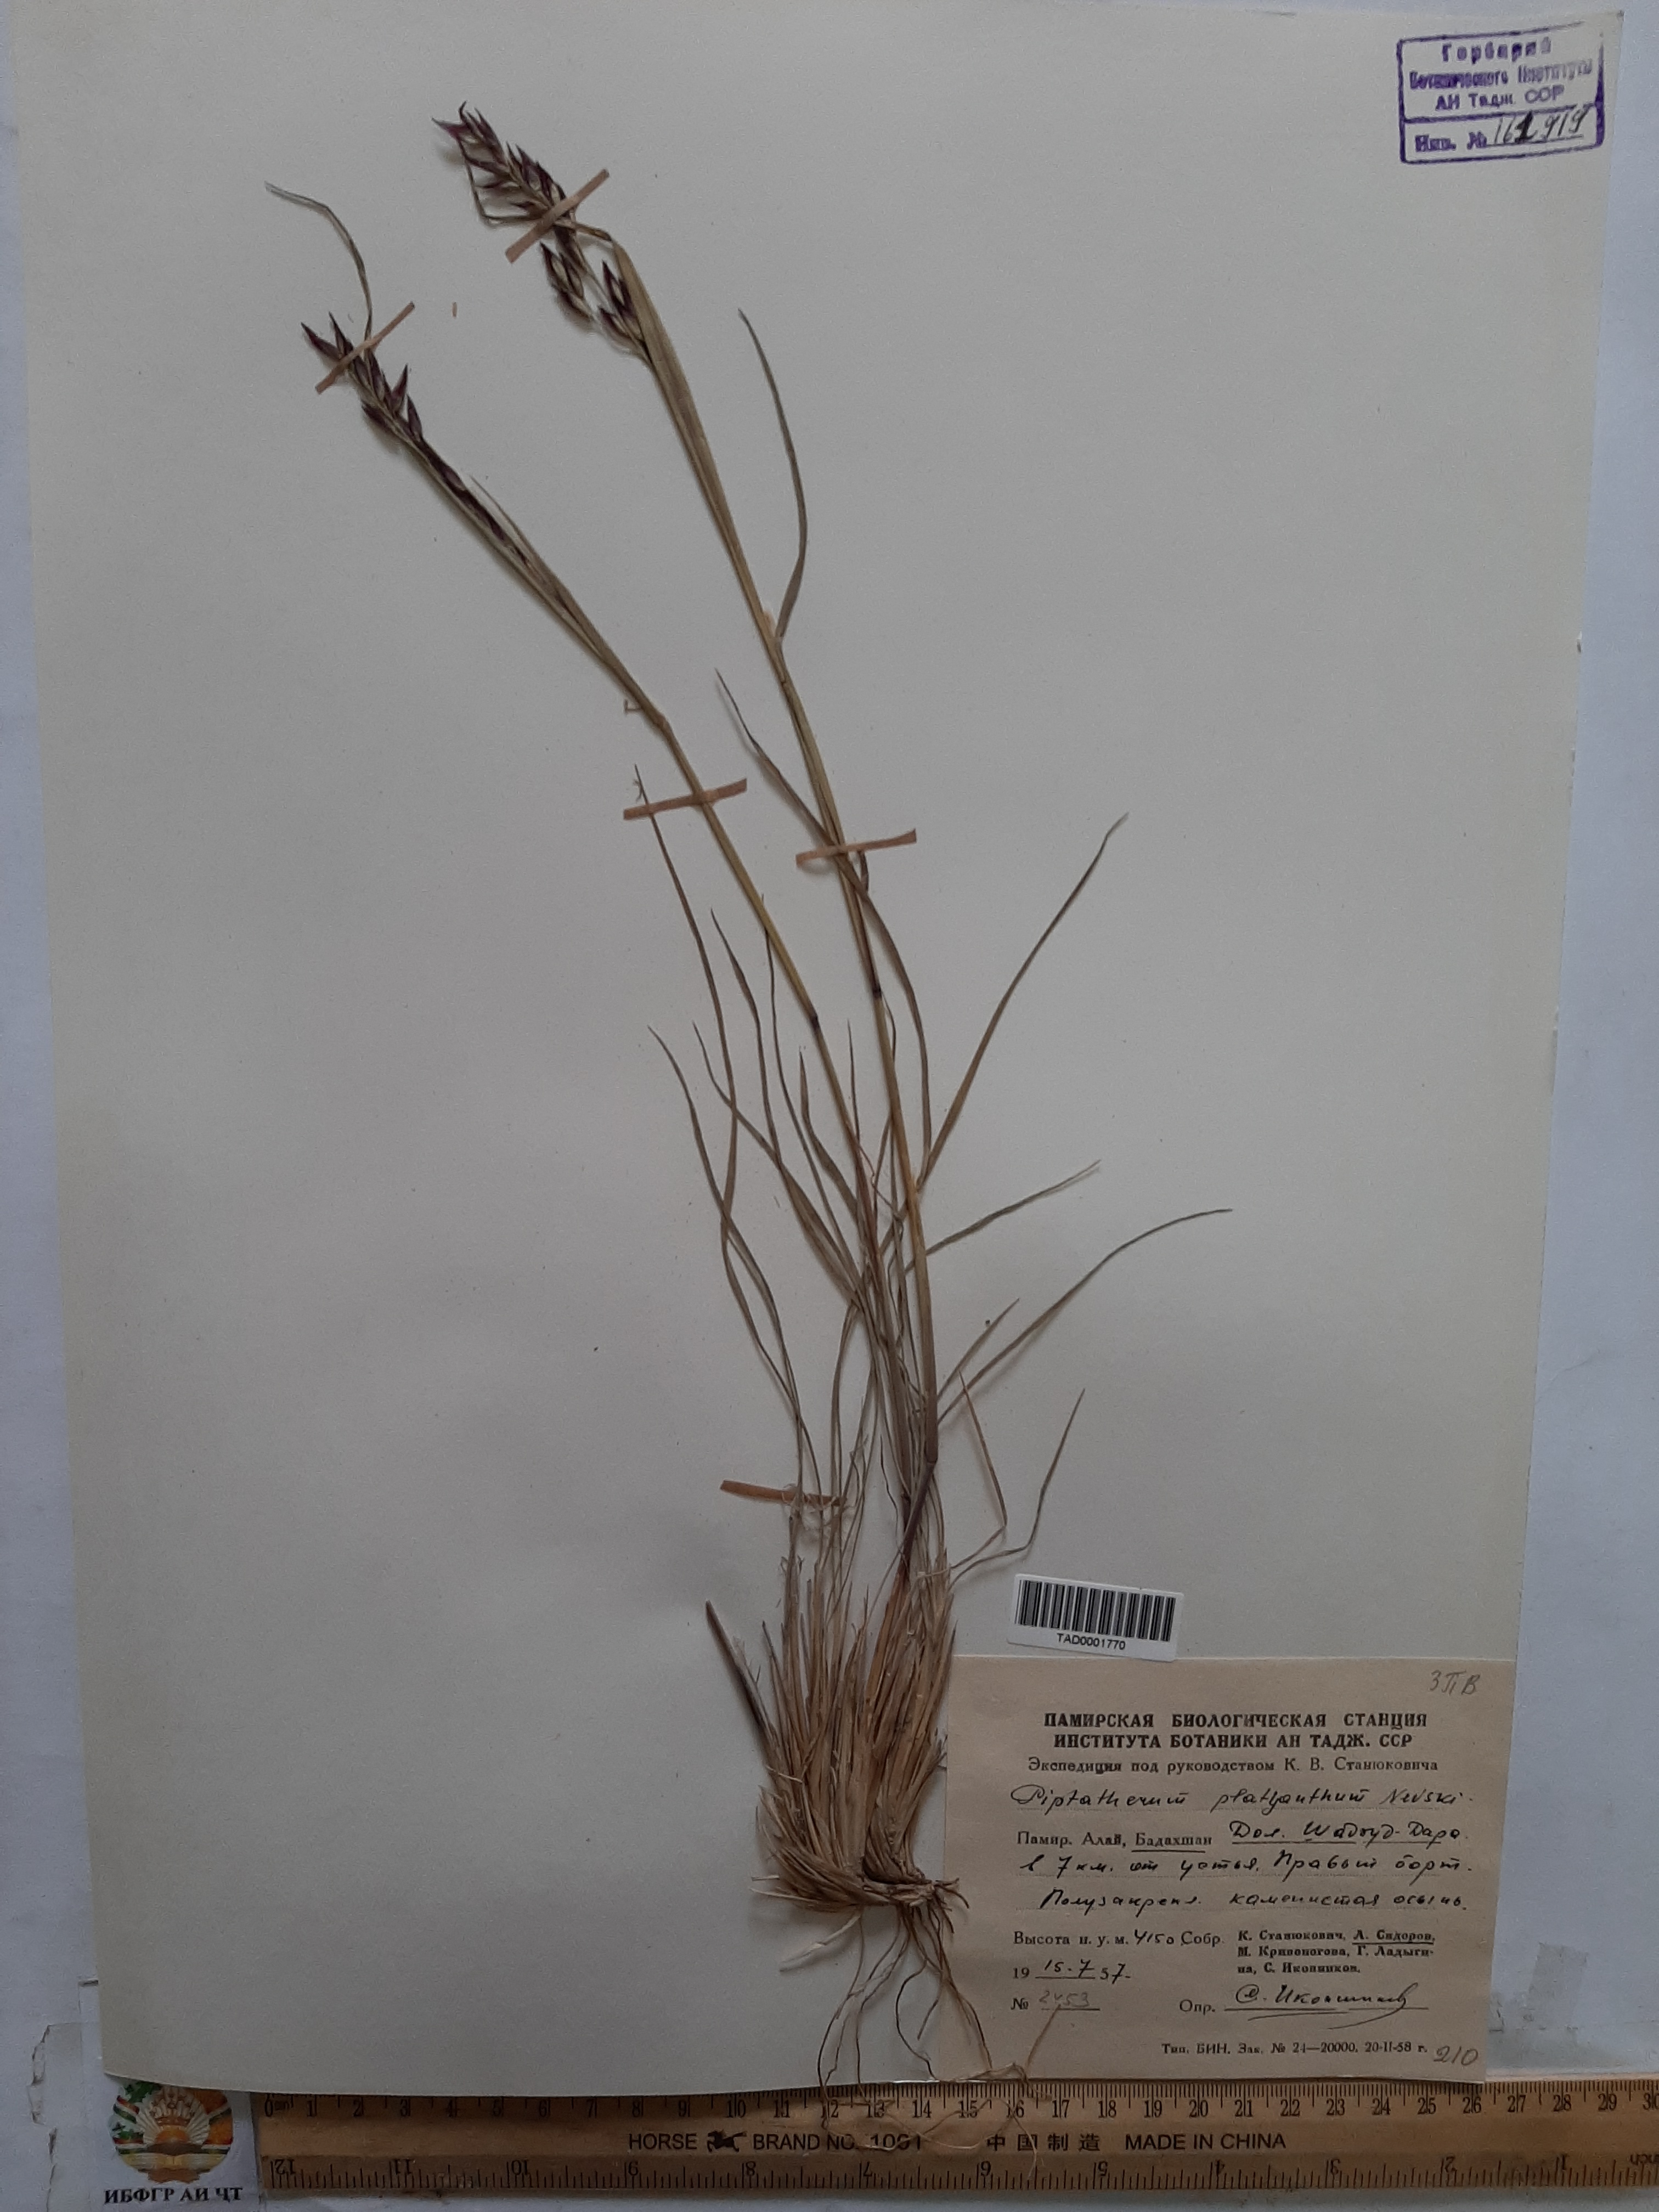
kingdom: Plantae
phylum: Tracheophyta
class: Liliopsida
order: Poales
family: Poaceae
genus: Piptatherum
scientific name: Piptatherum platyanthum
